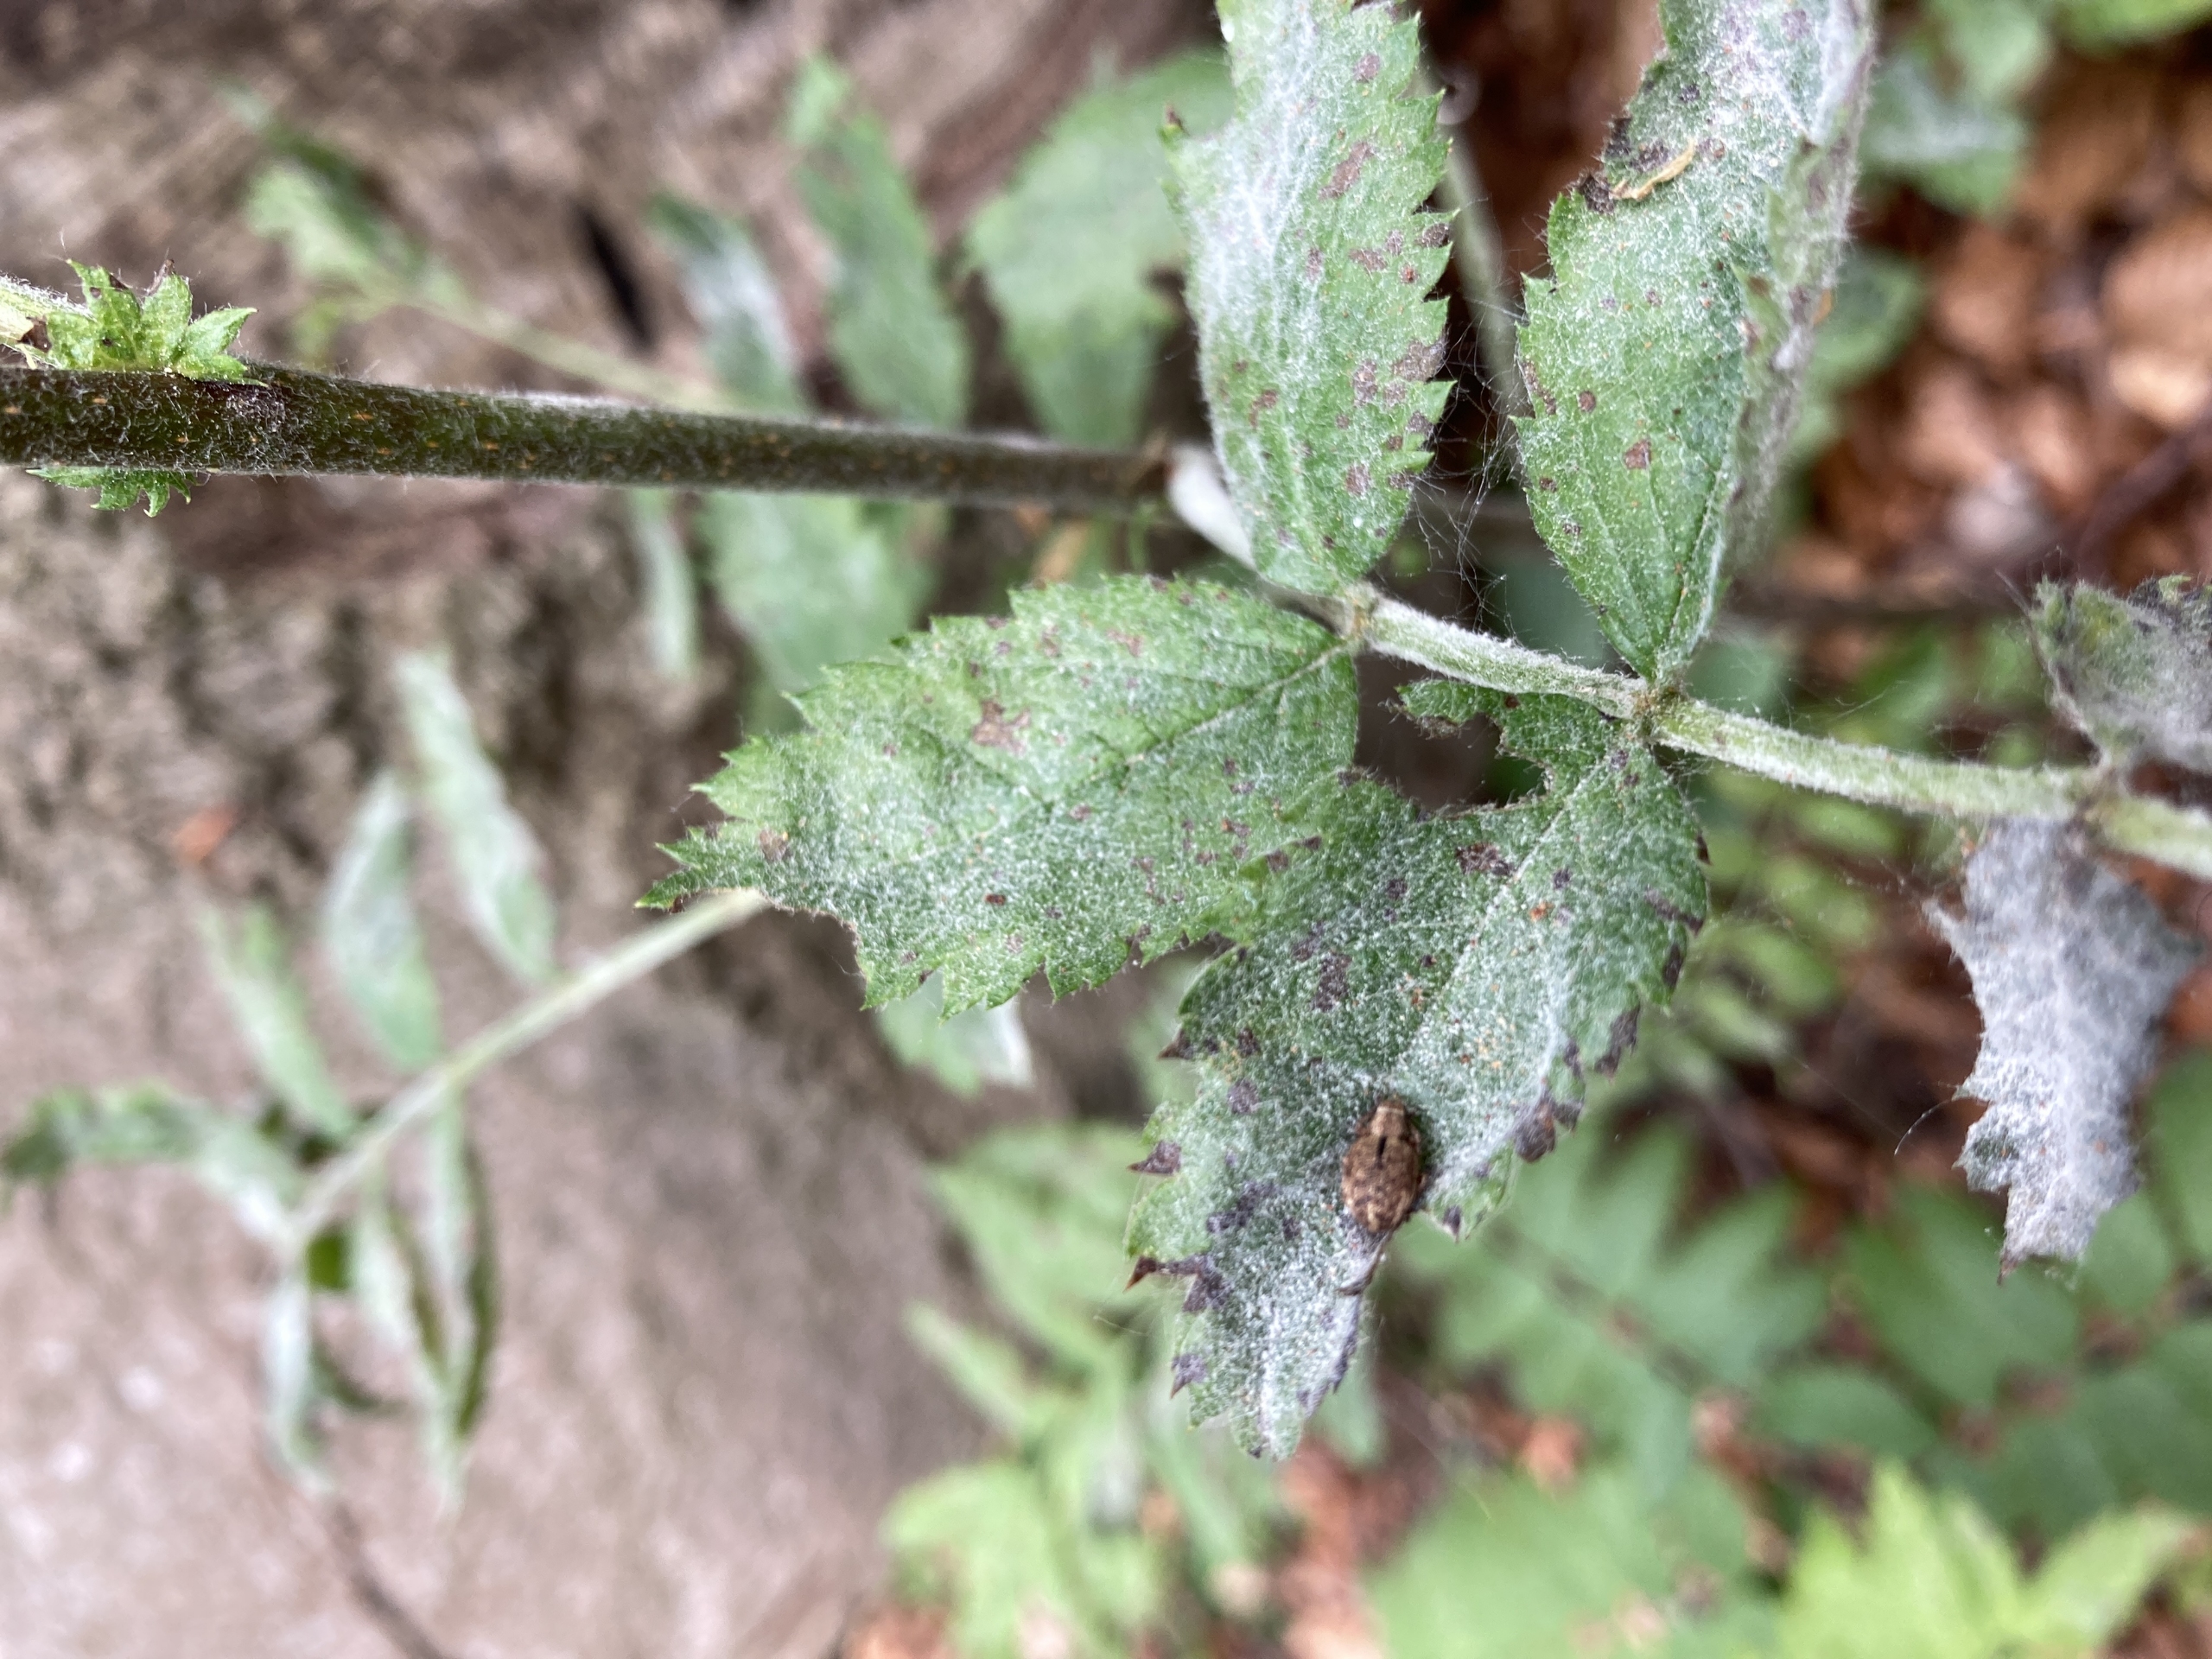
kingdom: Animalia
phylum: Arthropoda
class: Insecta
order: Coleoptera
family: Curculionidae
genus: Strophosoma
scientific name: Strophosoma melanogrammum
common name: Stribet gråsnude
